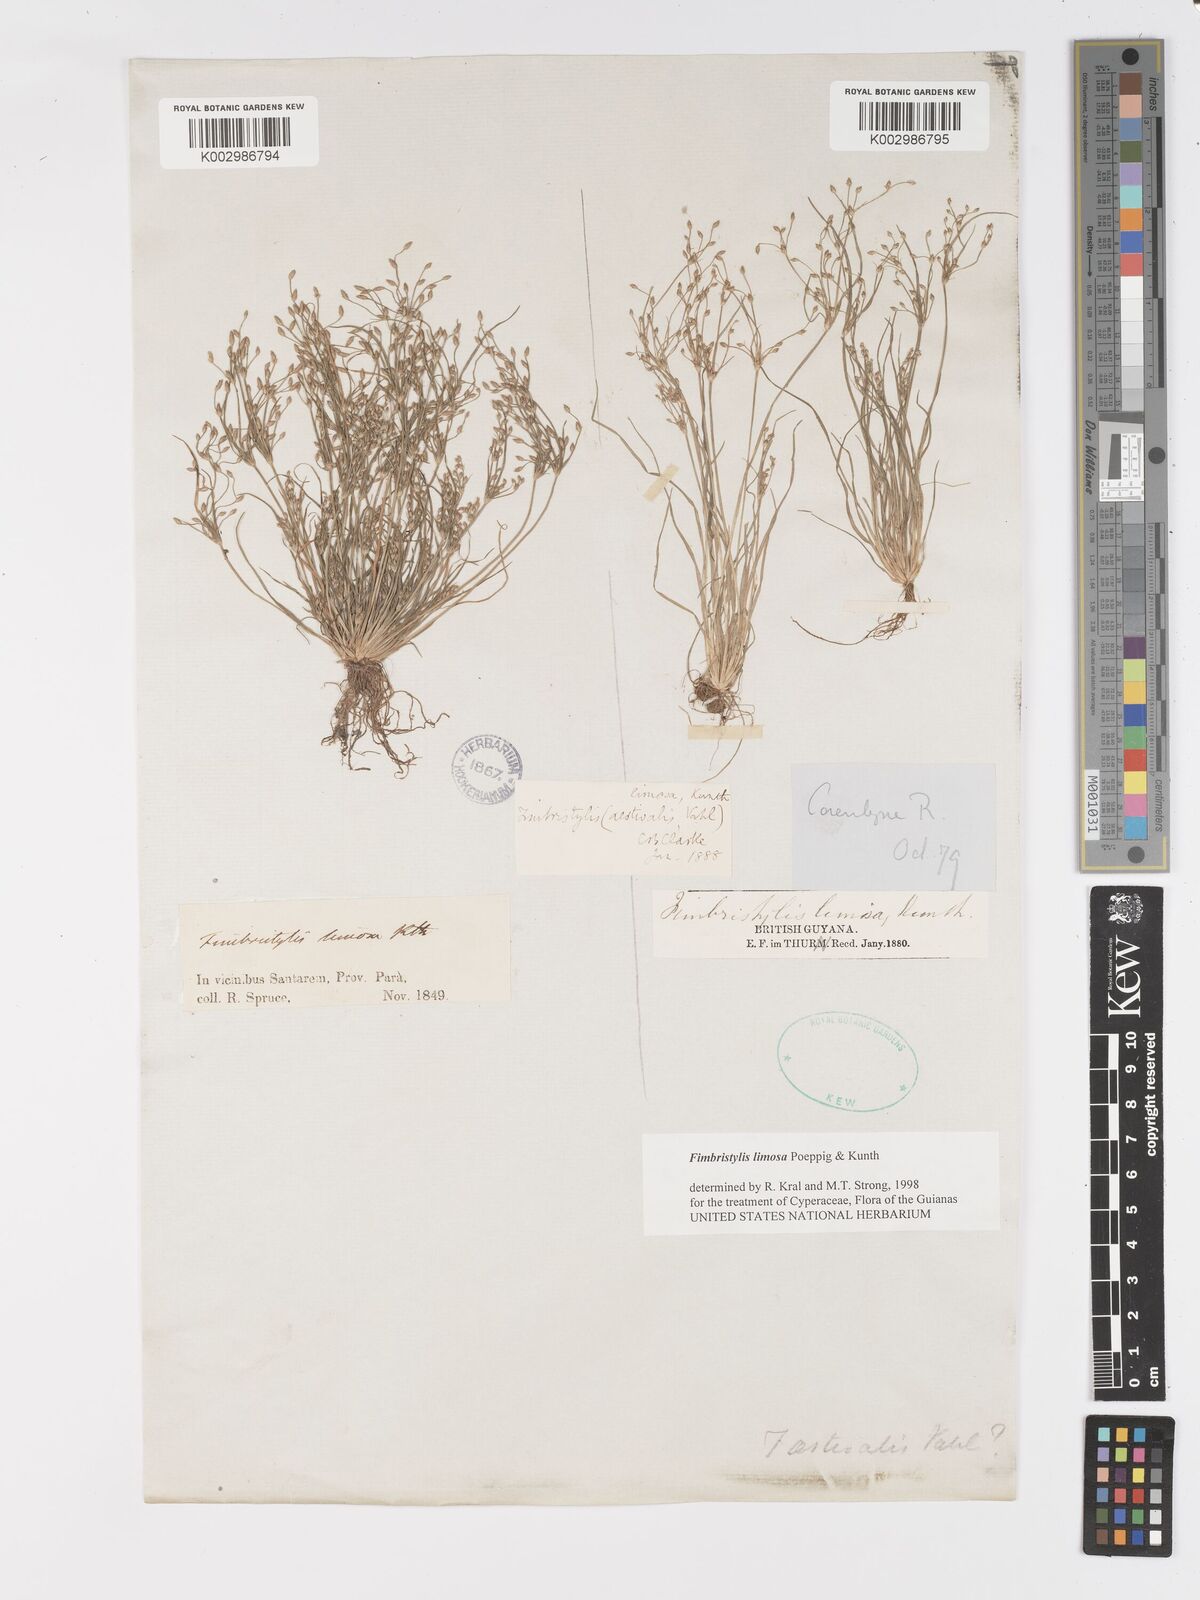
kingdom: Plantae
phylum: Tracheophyta
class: Liliopsida
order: Poales
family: Cyperaceae
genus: Fimbristylis
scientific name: Fimbristylis limosa
